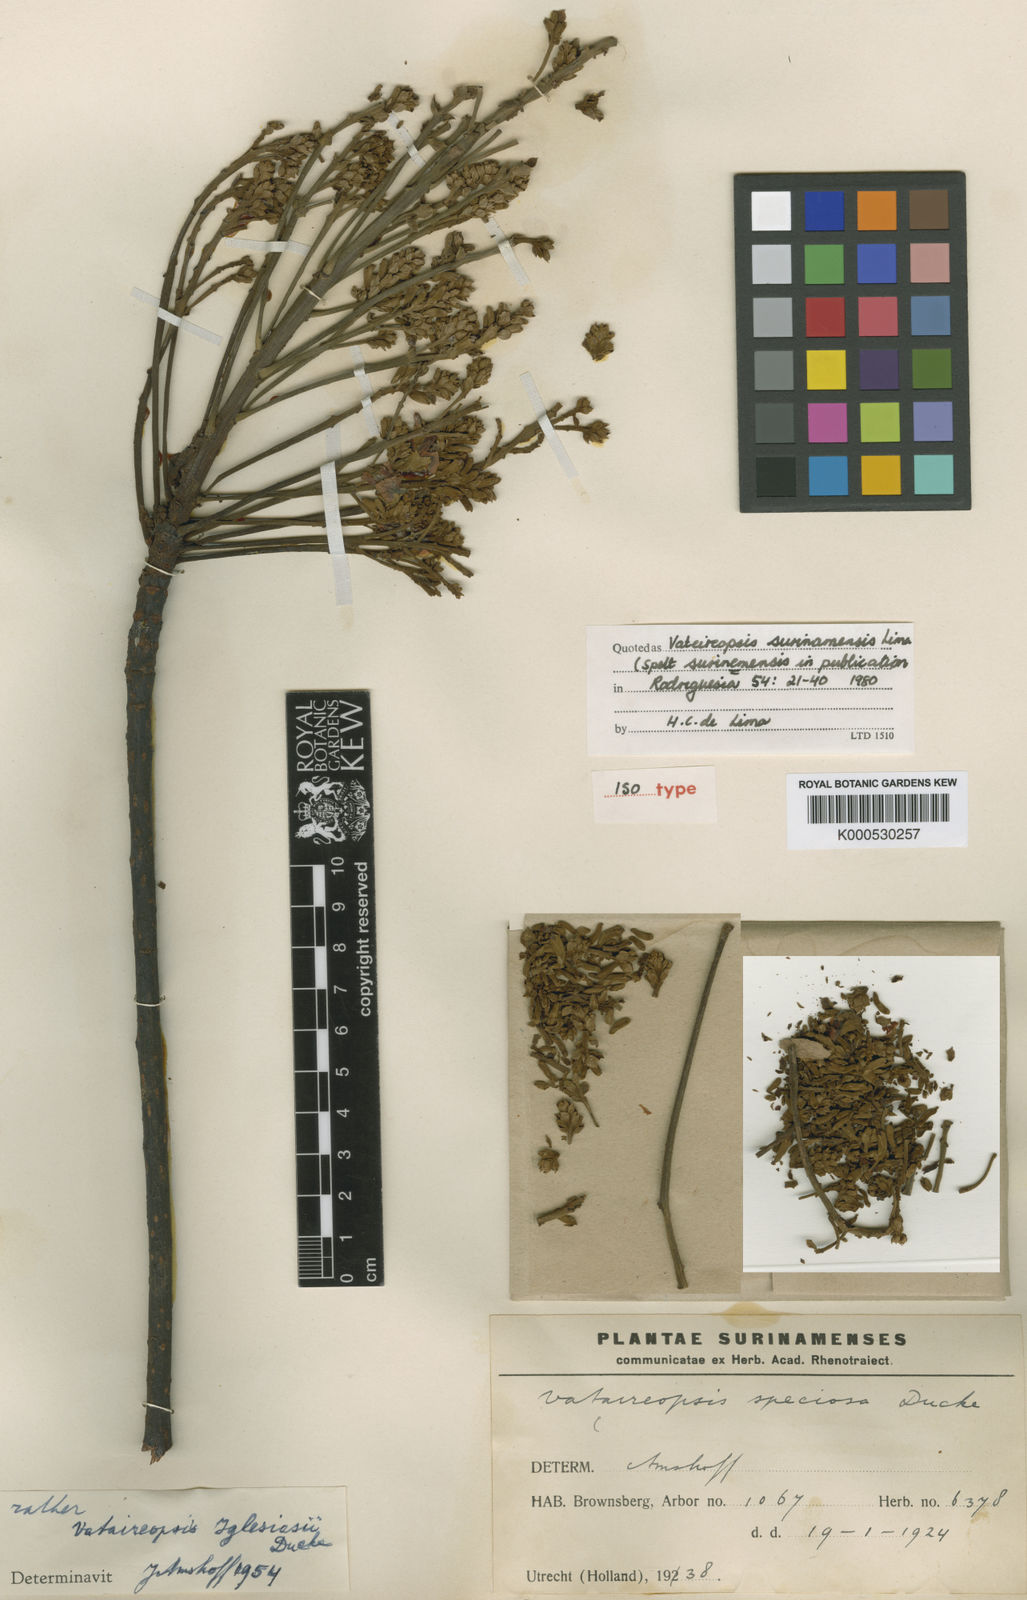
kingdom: Plantae
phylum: Tracheophyta
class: Magnoliopsida
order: Fabales
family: Fabaceae
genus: Vataireopsis
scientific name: Vataireopsis surinamensis
